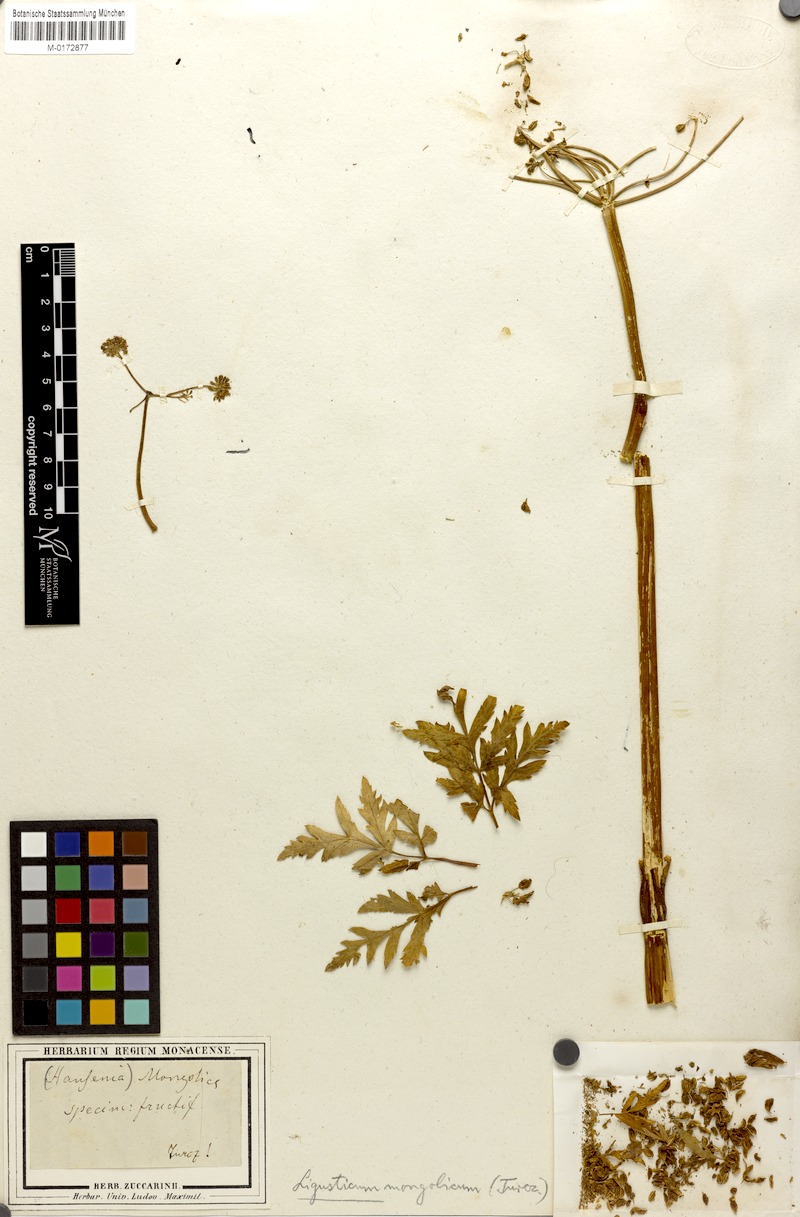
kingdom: Plantae
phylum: Tracheophyta
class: Magnoliopsida
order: Apiales
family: Apiaceae
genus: Hansenia
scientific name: Hansenia mongolica
